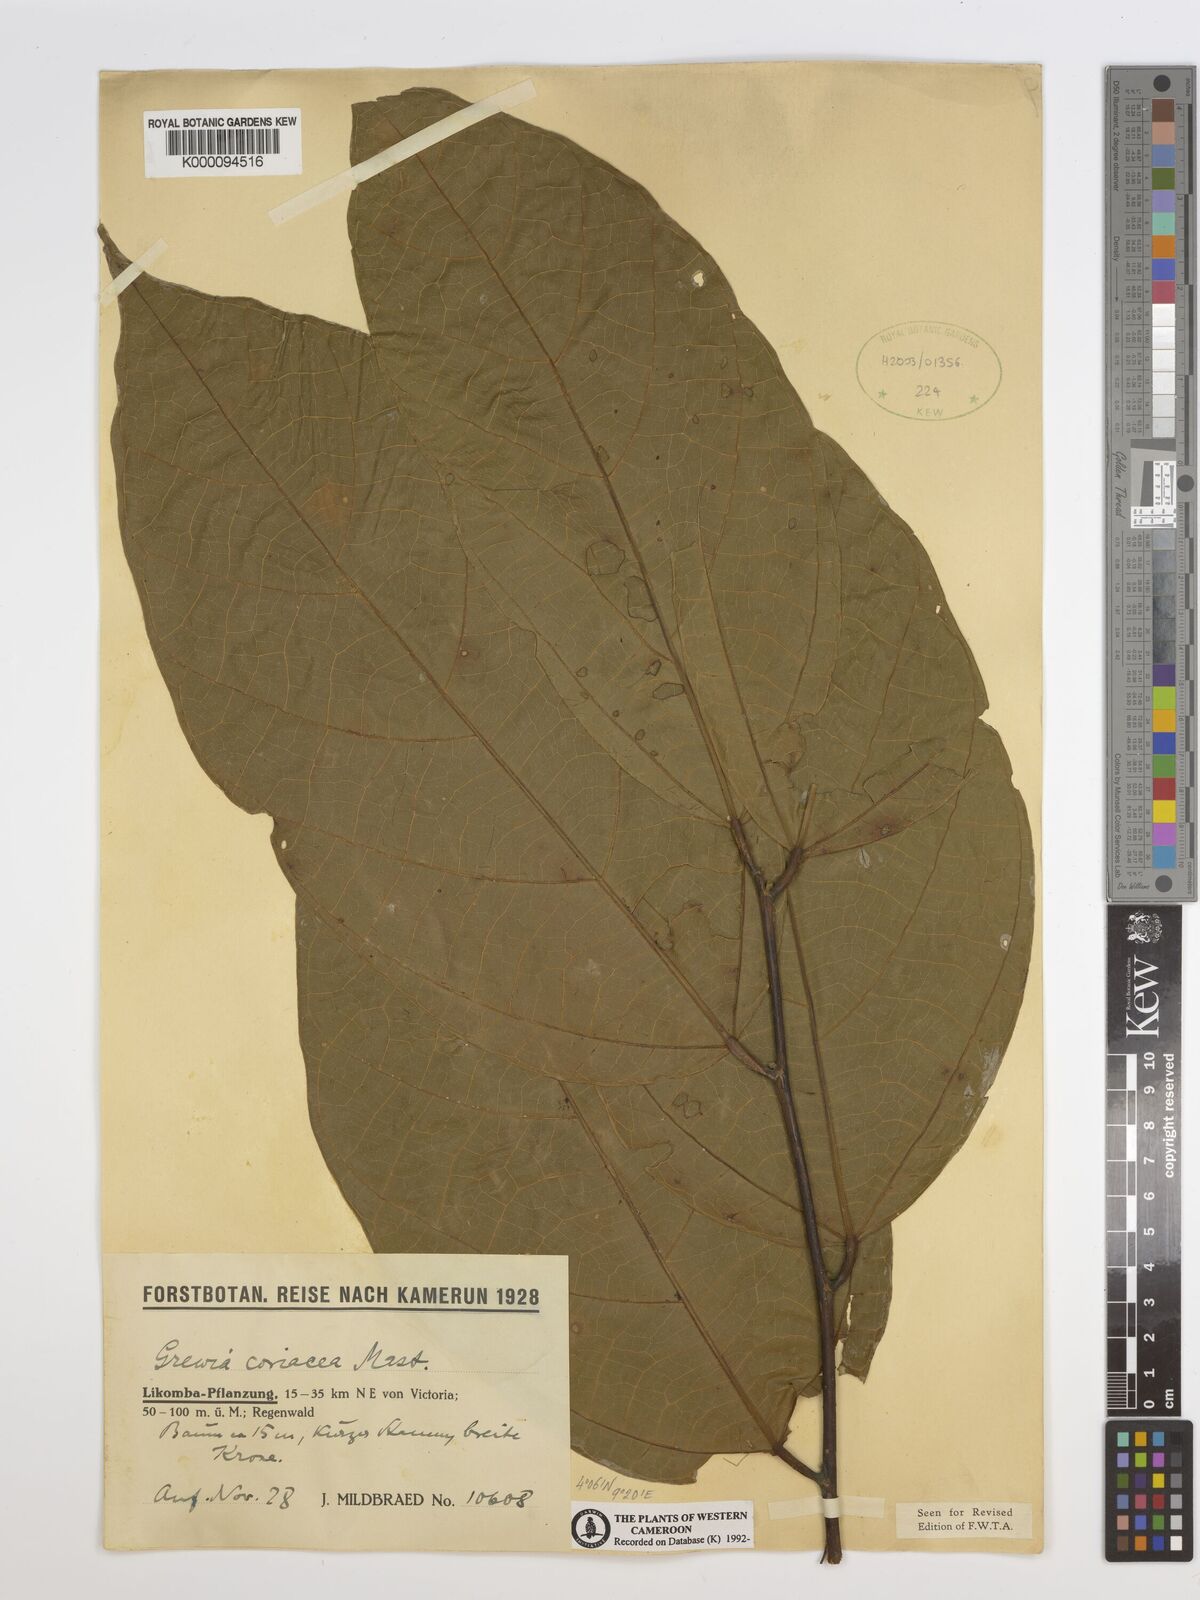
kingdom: Plantae
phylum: Tracheophyta
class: Magnoliopsida
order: Malvales
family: Malvaceae
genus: Microcos
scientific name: Microcos coriacea
